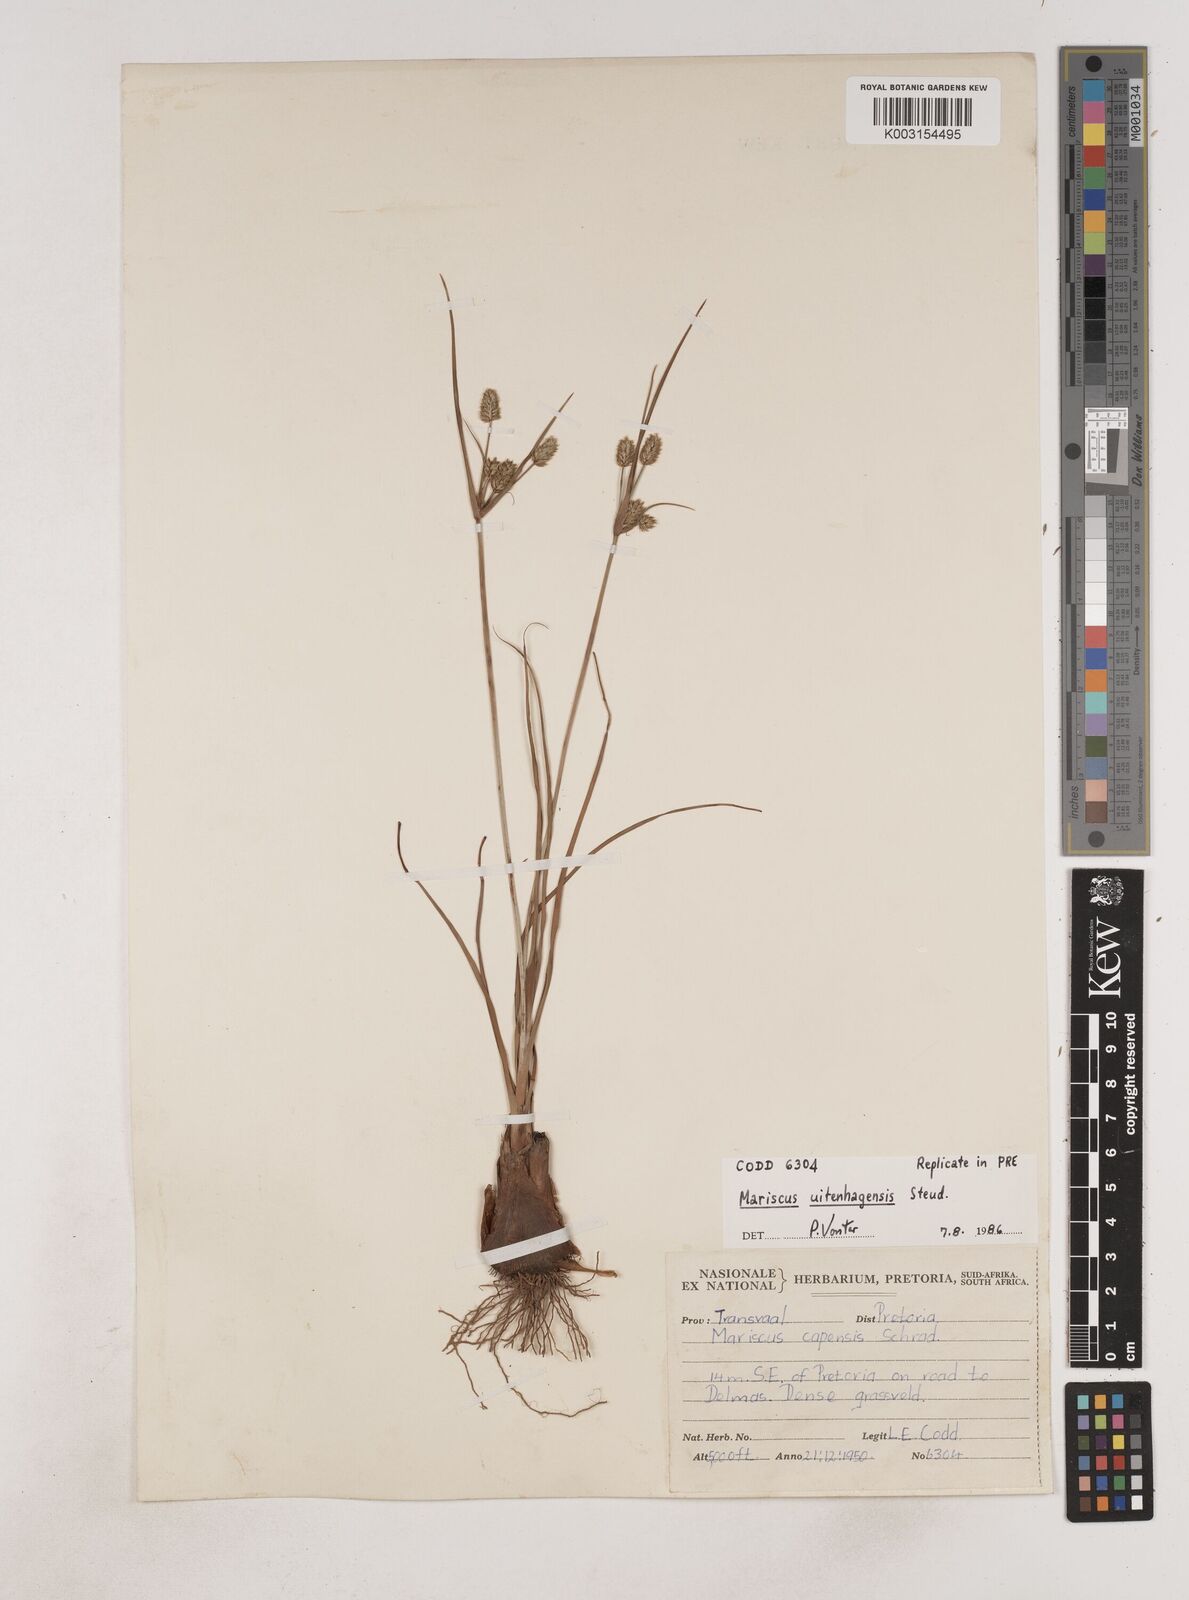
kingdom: Plantae
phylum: Tracheophyta
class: Liliopsida
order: Poales
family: Cyperaceae
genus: Cyperus
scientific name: Cyperus capensis
